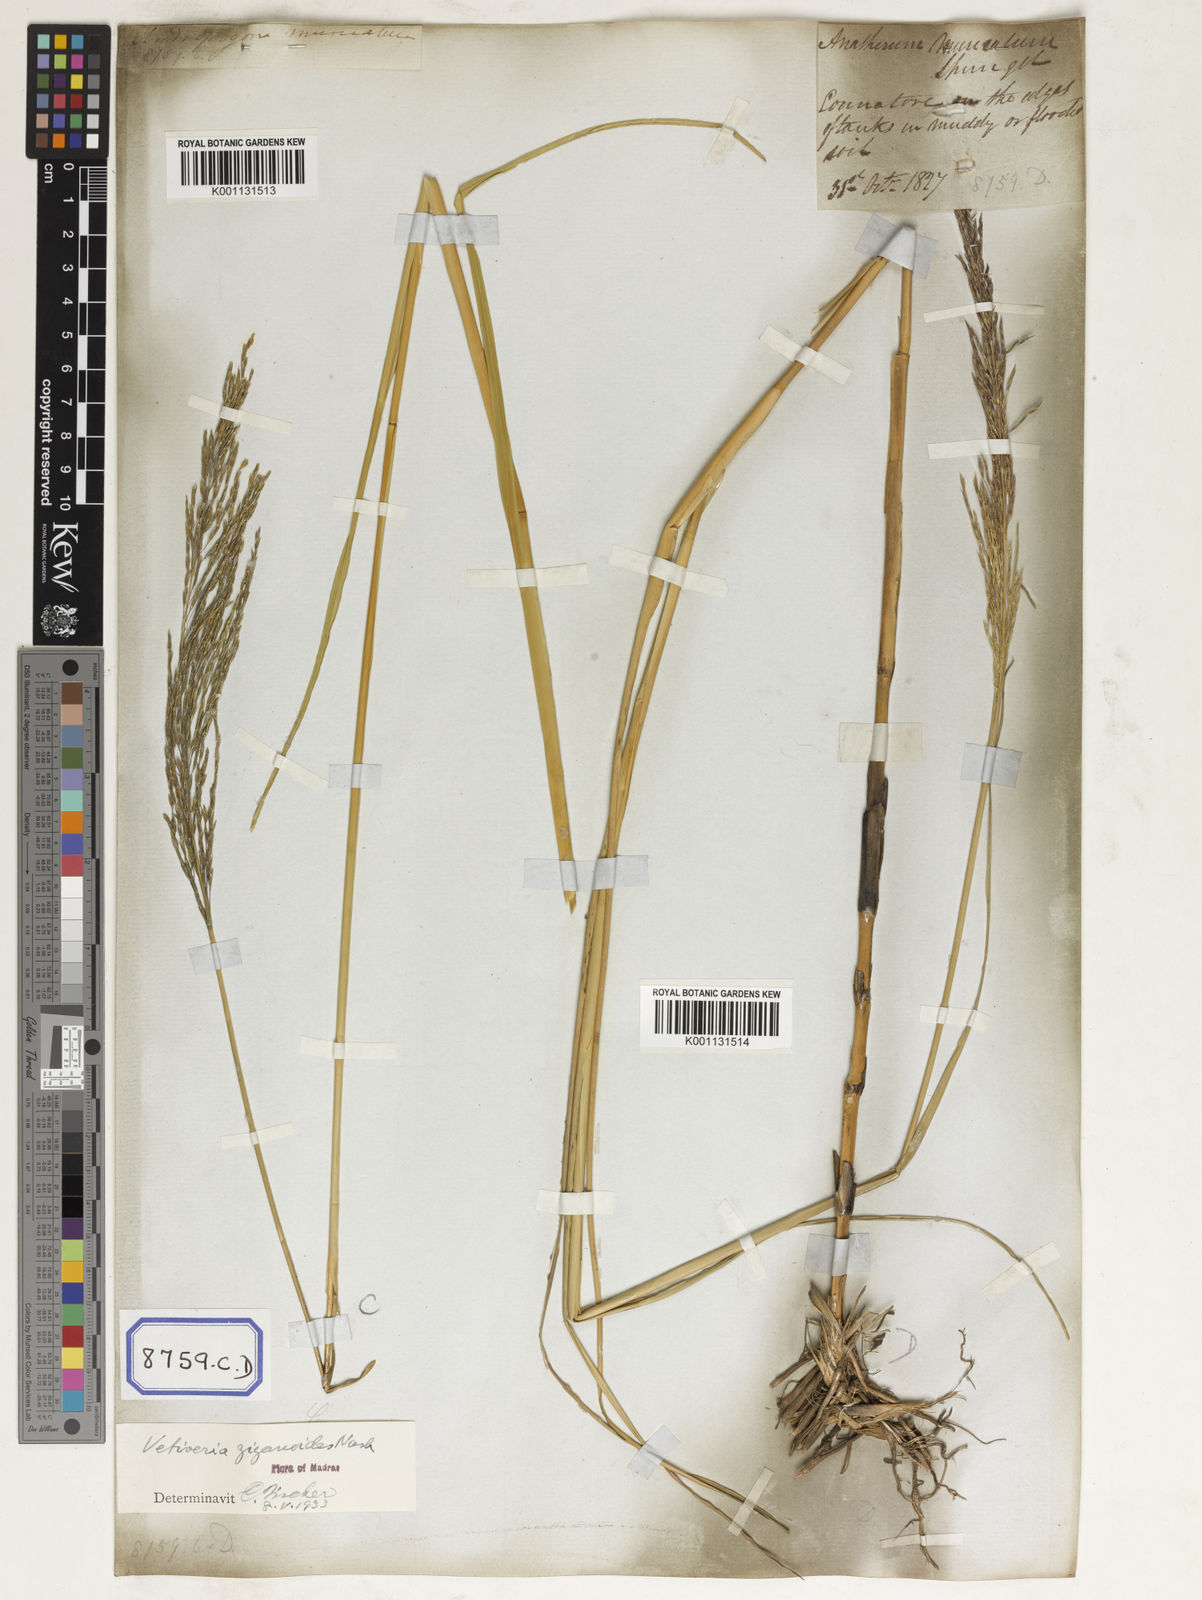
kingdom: Plantae
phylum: Tracheophyta
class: Liliopsida
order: Poales
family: Poaceae
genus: Chrysopogon
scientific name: Chrysopogon zizanioides
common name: False beardgrass
